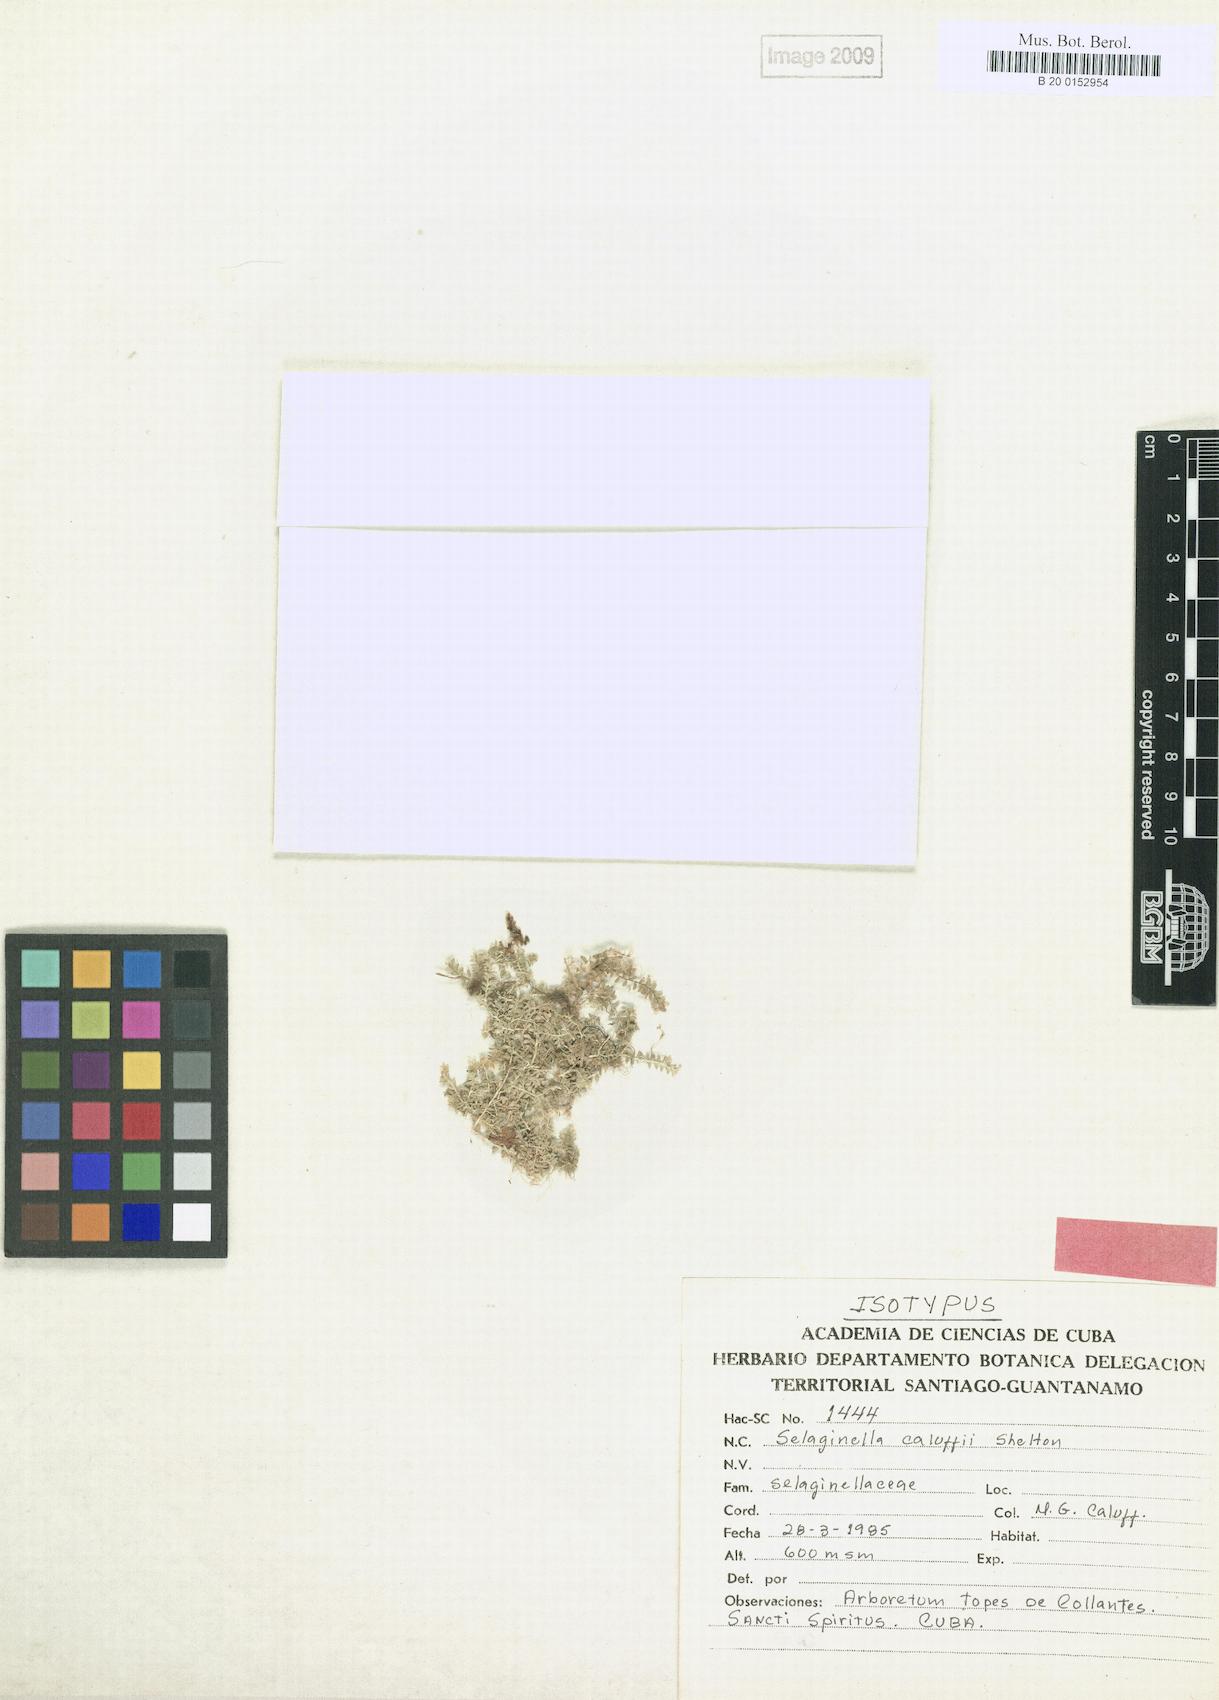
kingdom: Plantae
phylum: Tracheophyta
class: Lycopodiopsida
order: Selaginellales
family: Selaginellaceae
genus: Selaginella
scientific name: Selaginella caluffii
